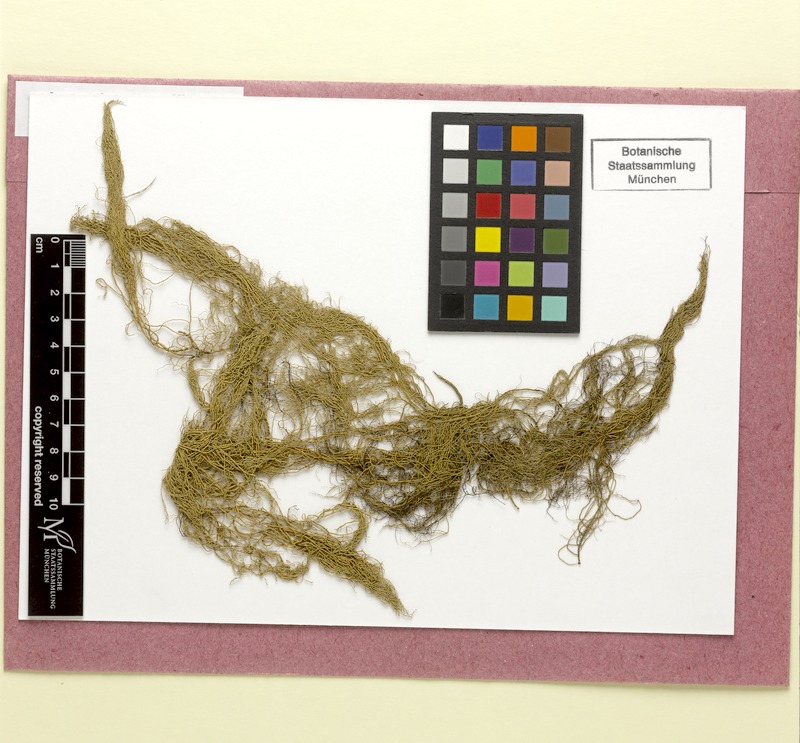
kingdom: Fungi
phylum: Ascomycota
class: Lecanoromycetes
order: Lecanorales
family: Parmeliaceae
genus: Usnea
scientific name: Usnea pendulina
